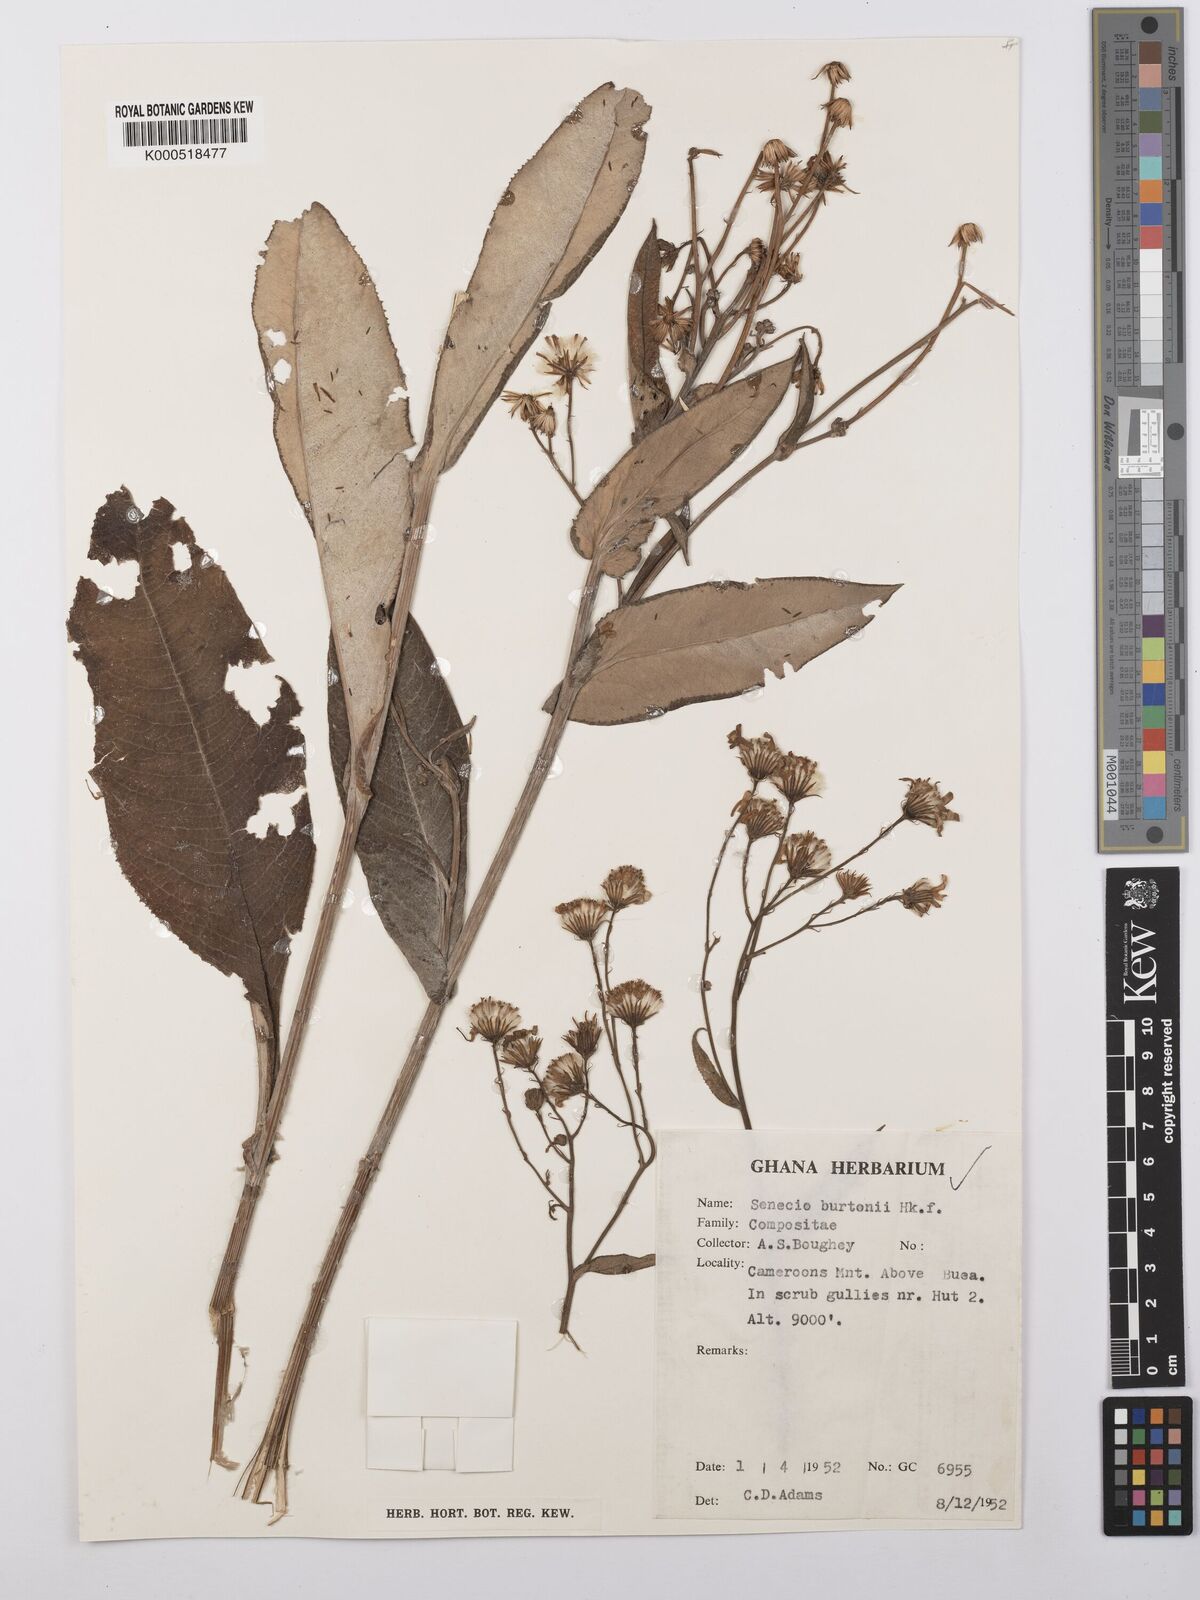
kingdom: Plantae
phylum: Tracheophyta
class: Magnoliopsida
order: Asterales
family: Asteraceae
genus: Senecio
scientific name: Senecio burtonii
